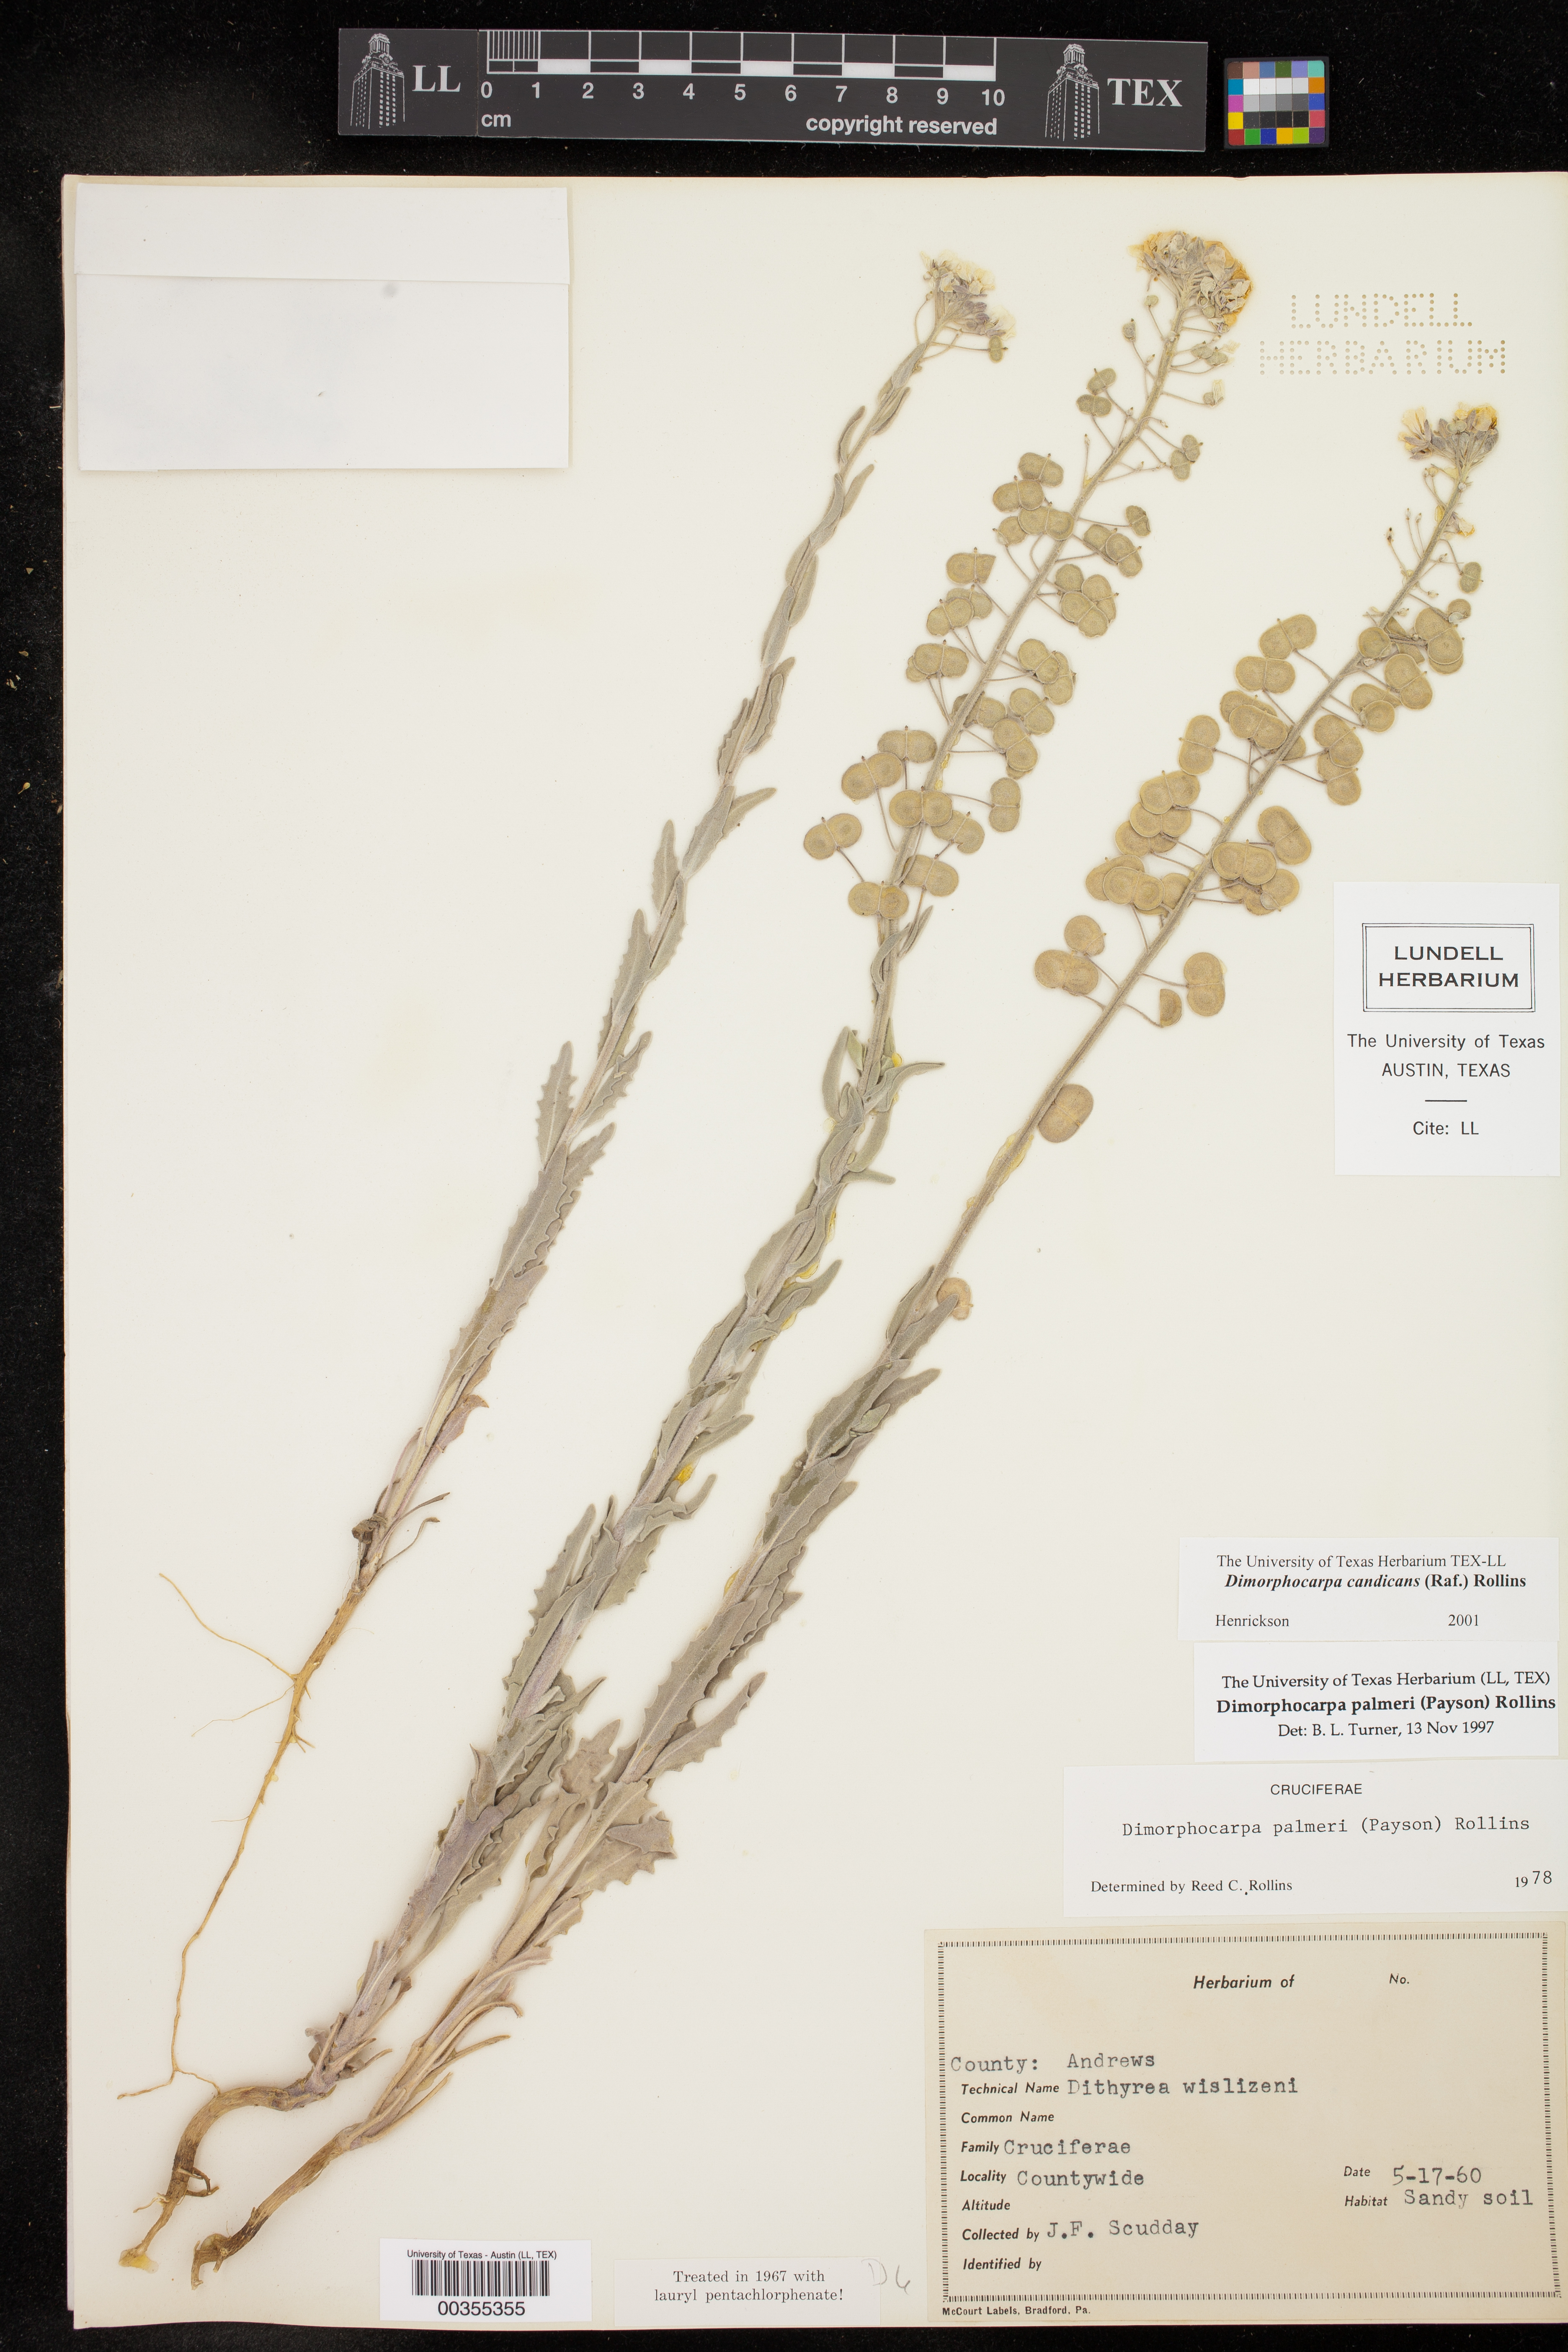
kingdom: Plantae
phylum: Tracheophyta
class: Magnoliopsida
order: Brassicales
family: Brassicaceae
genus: Dimorphocarpa
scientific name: Dimorphocarpa candicans
